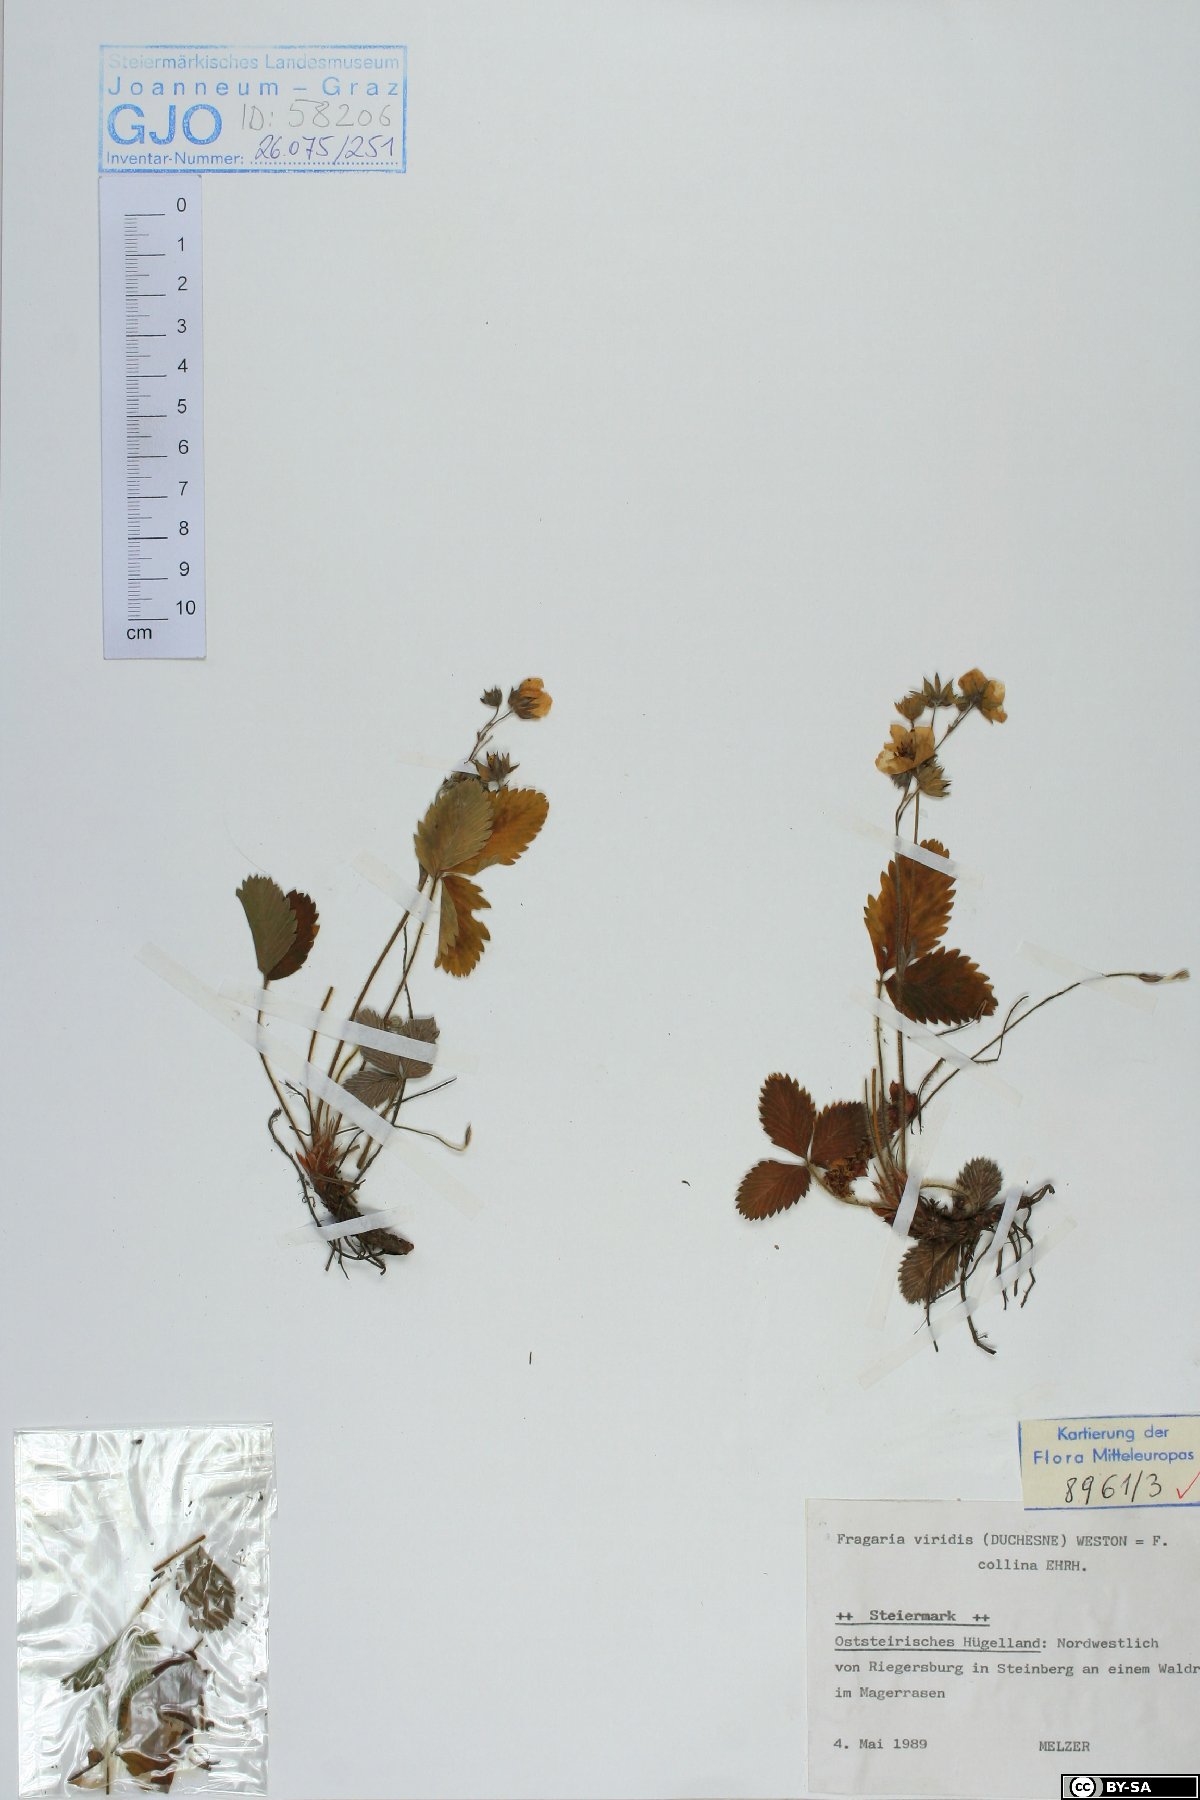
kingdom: Plantae
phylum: Tracheophyta
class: Magnoliopsida
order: Rosales
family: Rosaceae
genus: Fragaria
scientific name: Fragaria viridis
